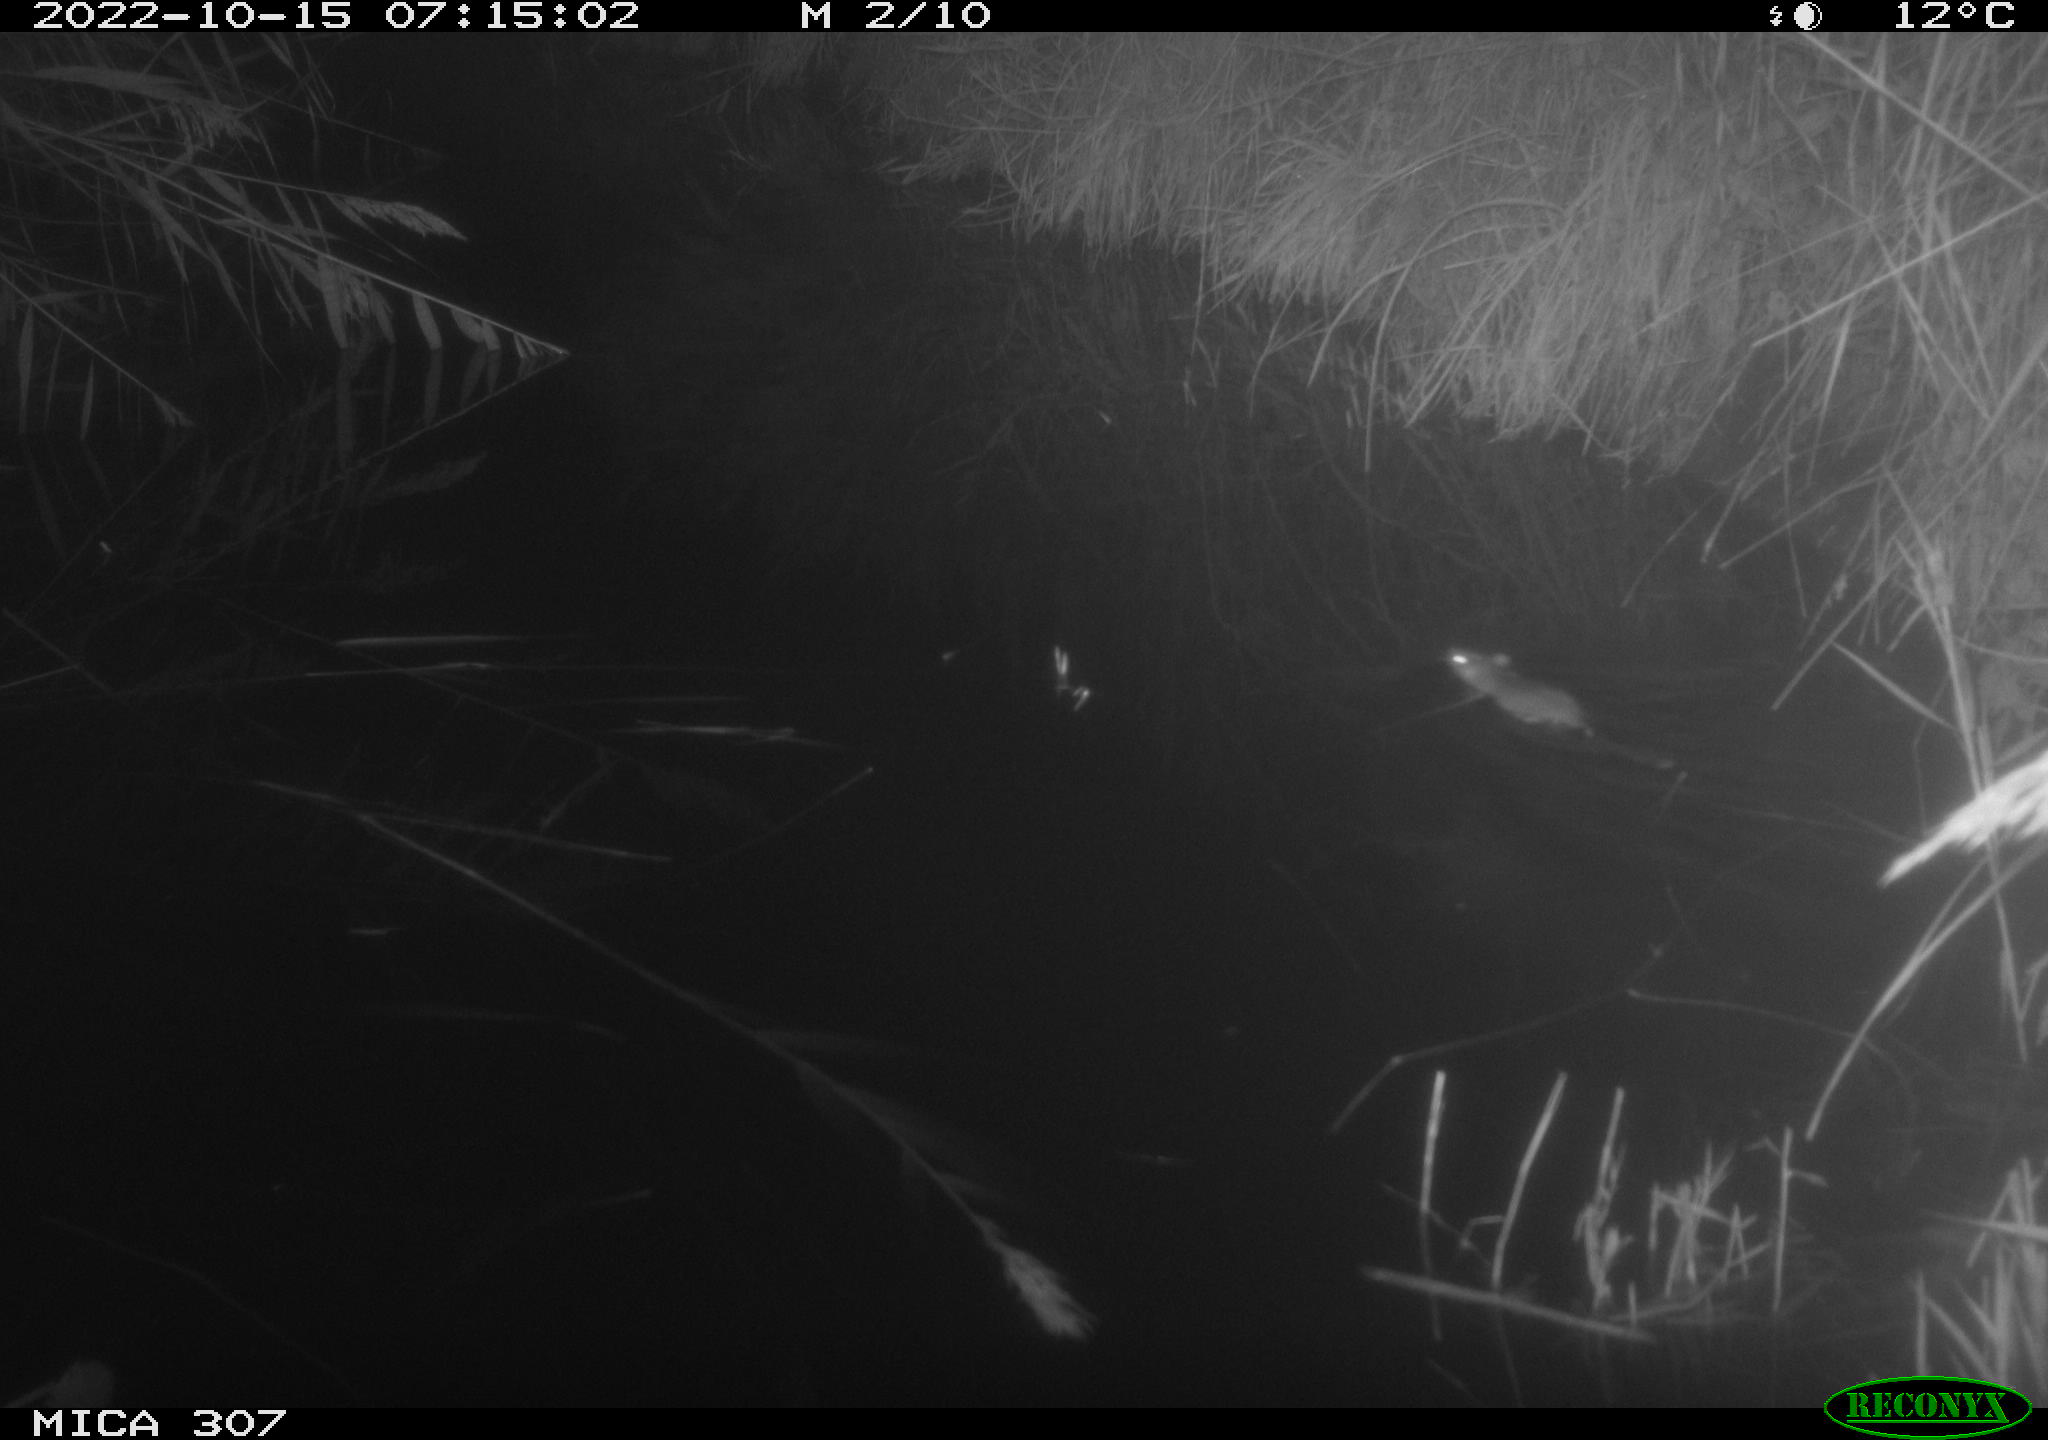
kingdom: Animalia
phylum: Chordata
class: Mammalia
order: Rodentia
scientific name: Rodentia
